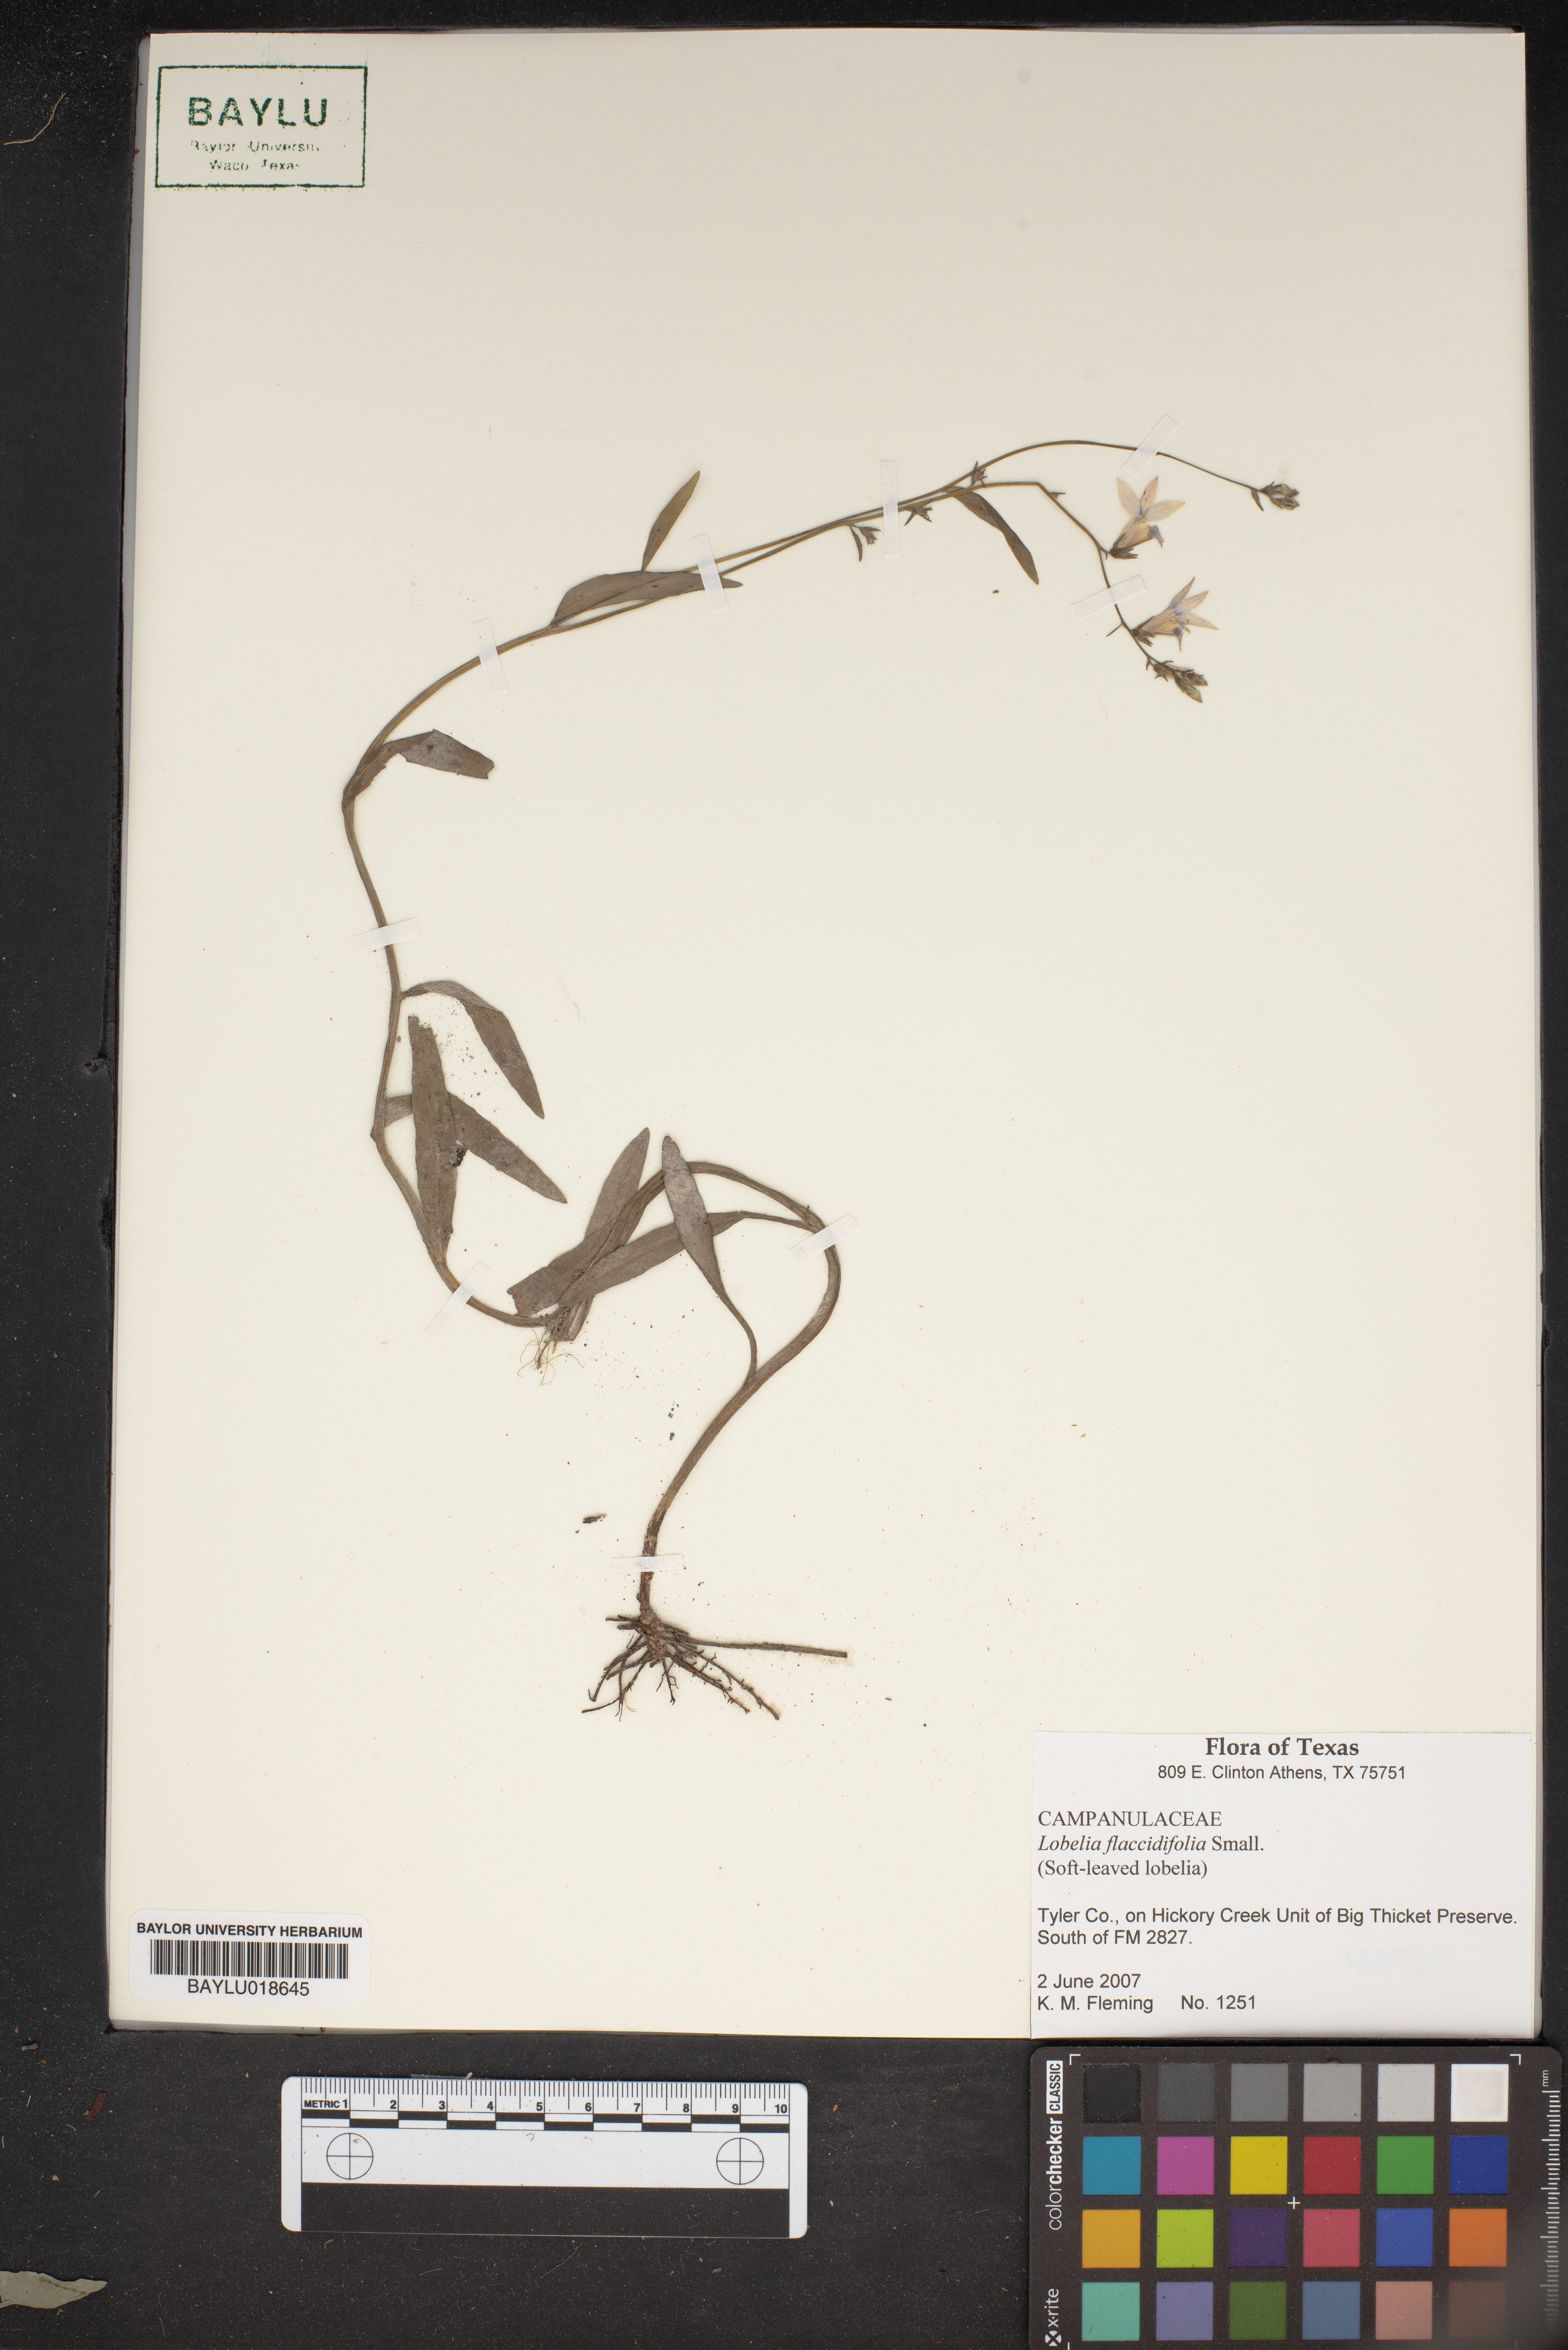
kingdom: Plantae
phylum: Tracheophyta
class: Magnoliopsida
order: Asterales
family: Campanulaceae
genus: Lobelia
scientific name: Lobelia flaccidifolia
